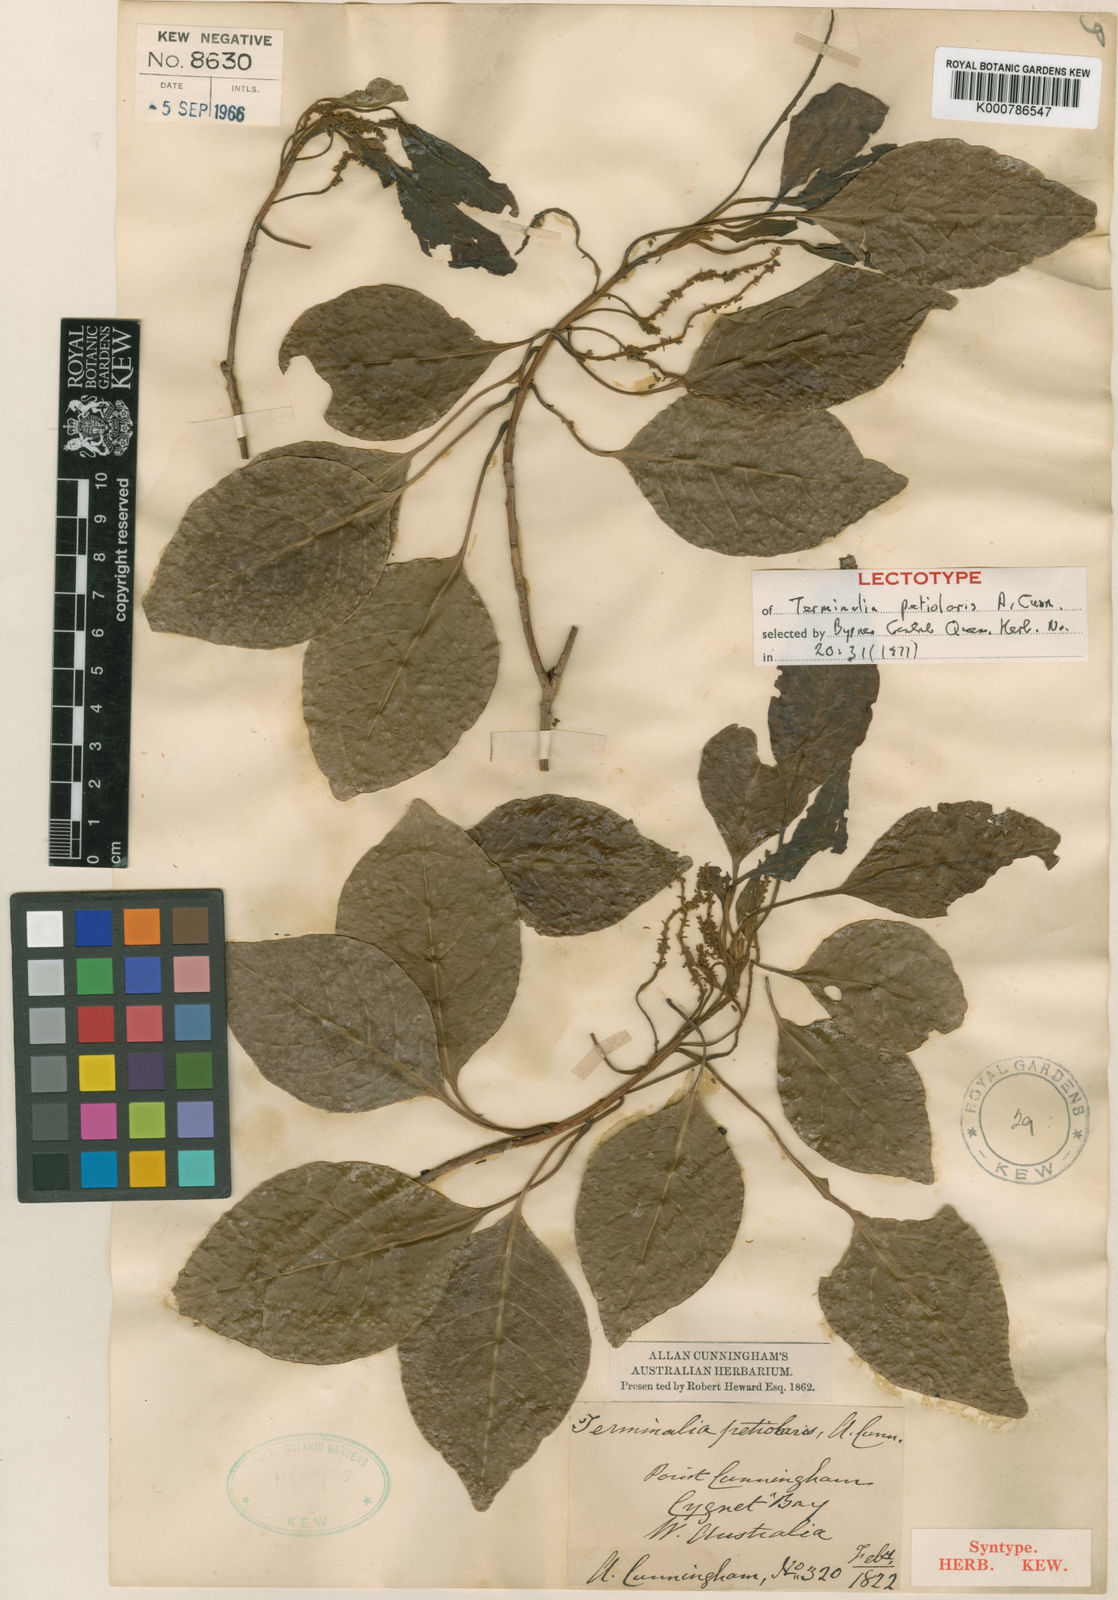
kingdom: Plantae
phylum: Tracheophyta
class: Magnoliopsida
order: Myrtales
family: Combretaceae
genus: Terminalia
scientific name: Terminalia petiolaris
